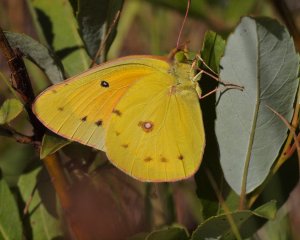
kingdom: Animalia
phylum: Arthropoda
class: Insecta
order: Lepidoptera
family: Pieridae
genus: Colias
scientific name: Colias eurytheme
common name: Orange Sulphur
